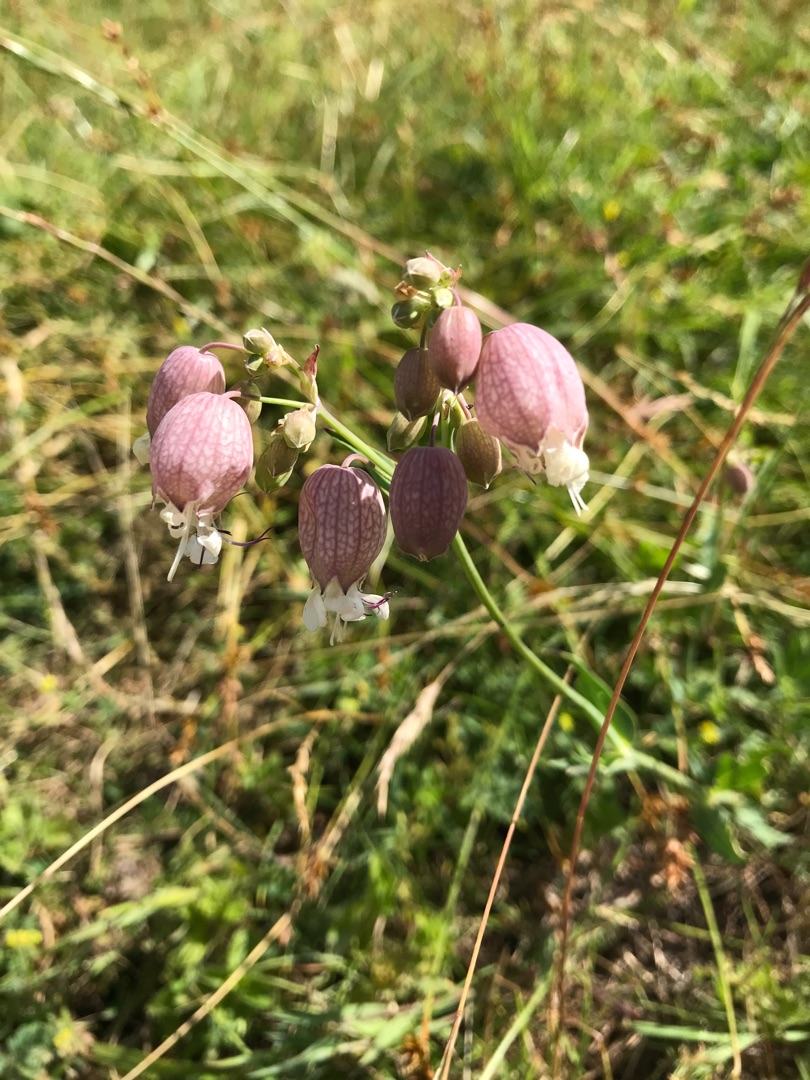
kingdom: Plantae
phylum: Tracheophyta
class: Magnoliopsida
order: Caryophyllales
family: Caryophyllaceae
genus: Silene
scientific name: Silene vulgaris
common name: Blæresmælde
